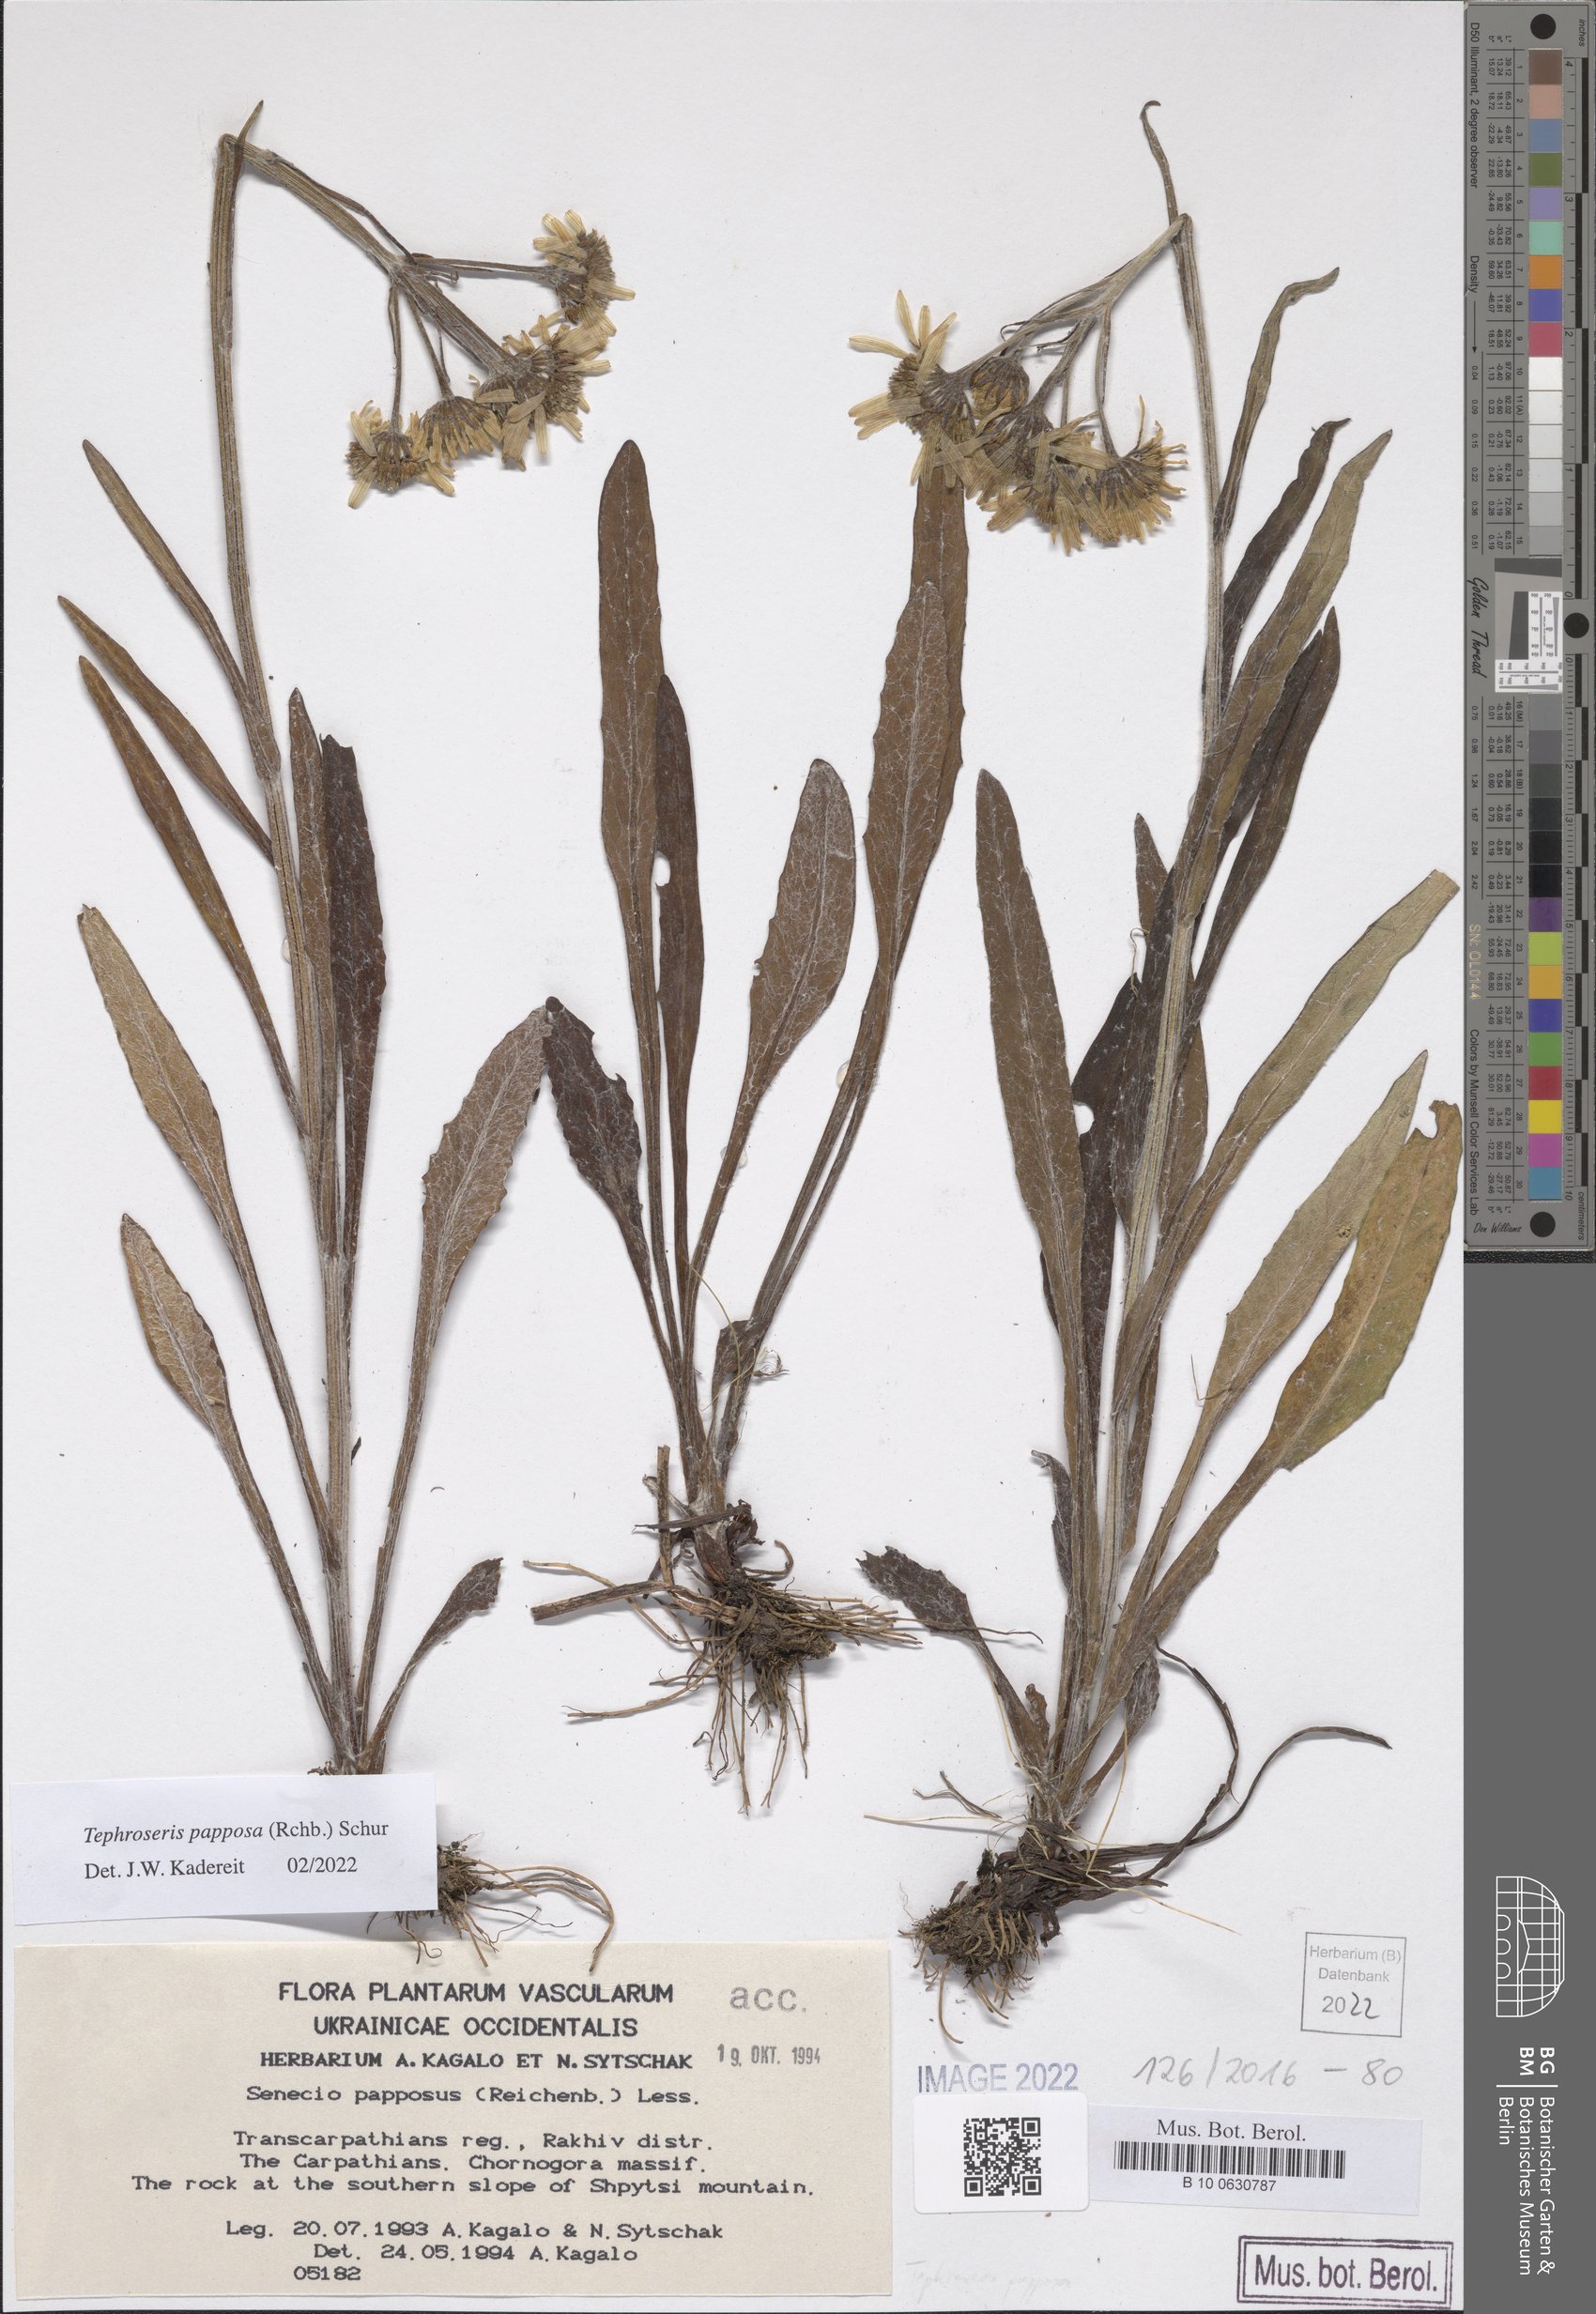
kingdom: Plantae
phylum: Tracheophyta
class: Magnoliopsida
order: Asterales
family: Asteraceae
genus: Tephroseris
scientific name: Tephroseris papposa
